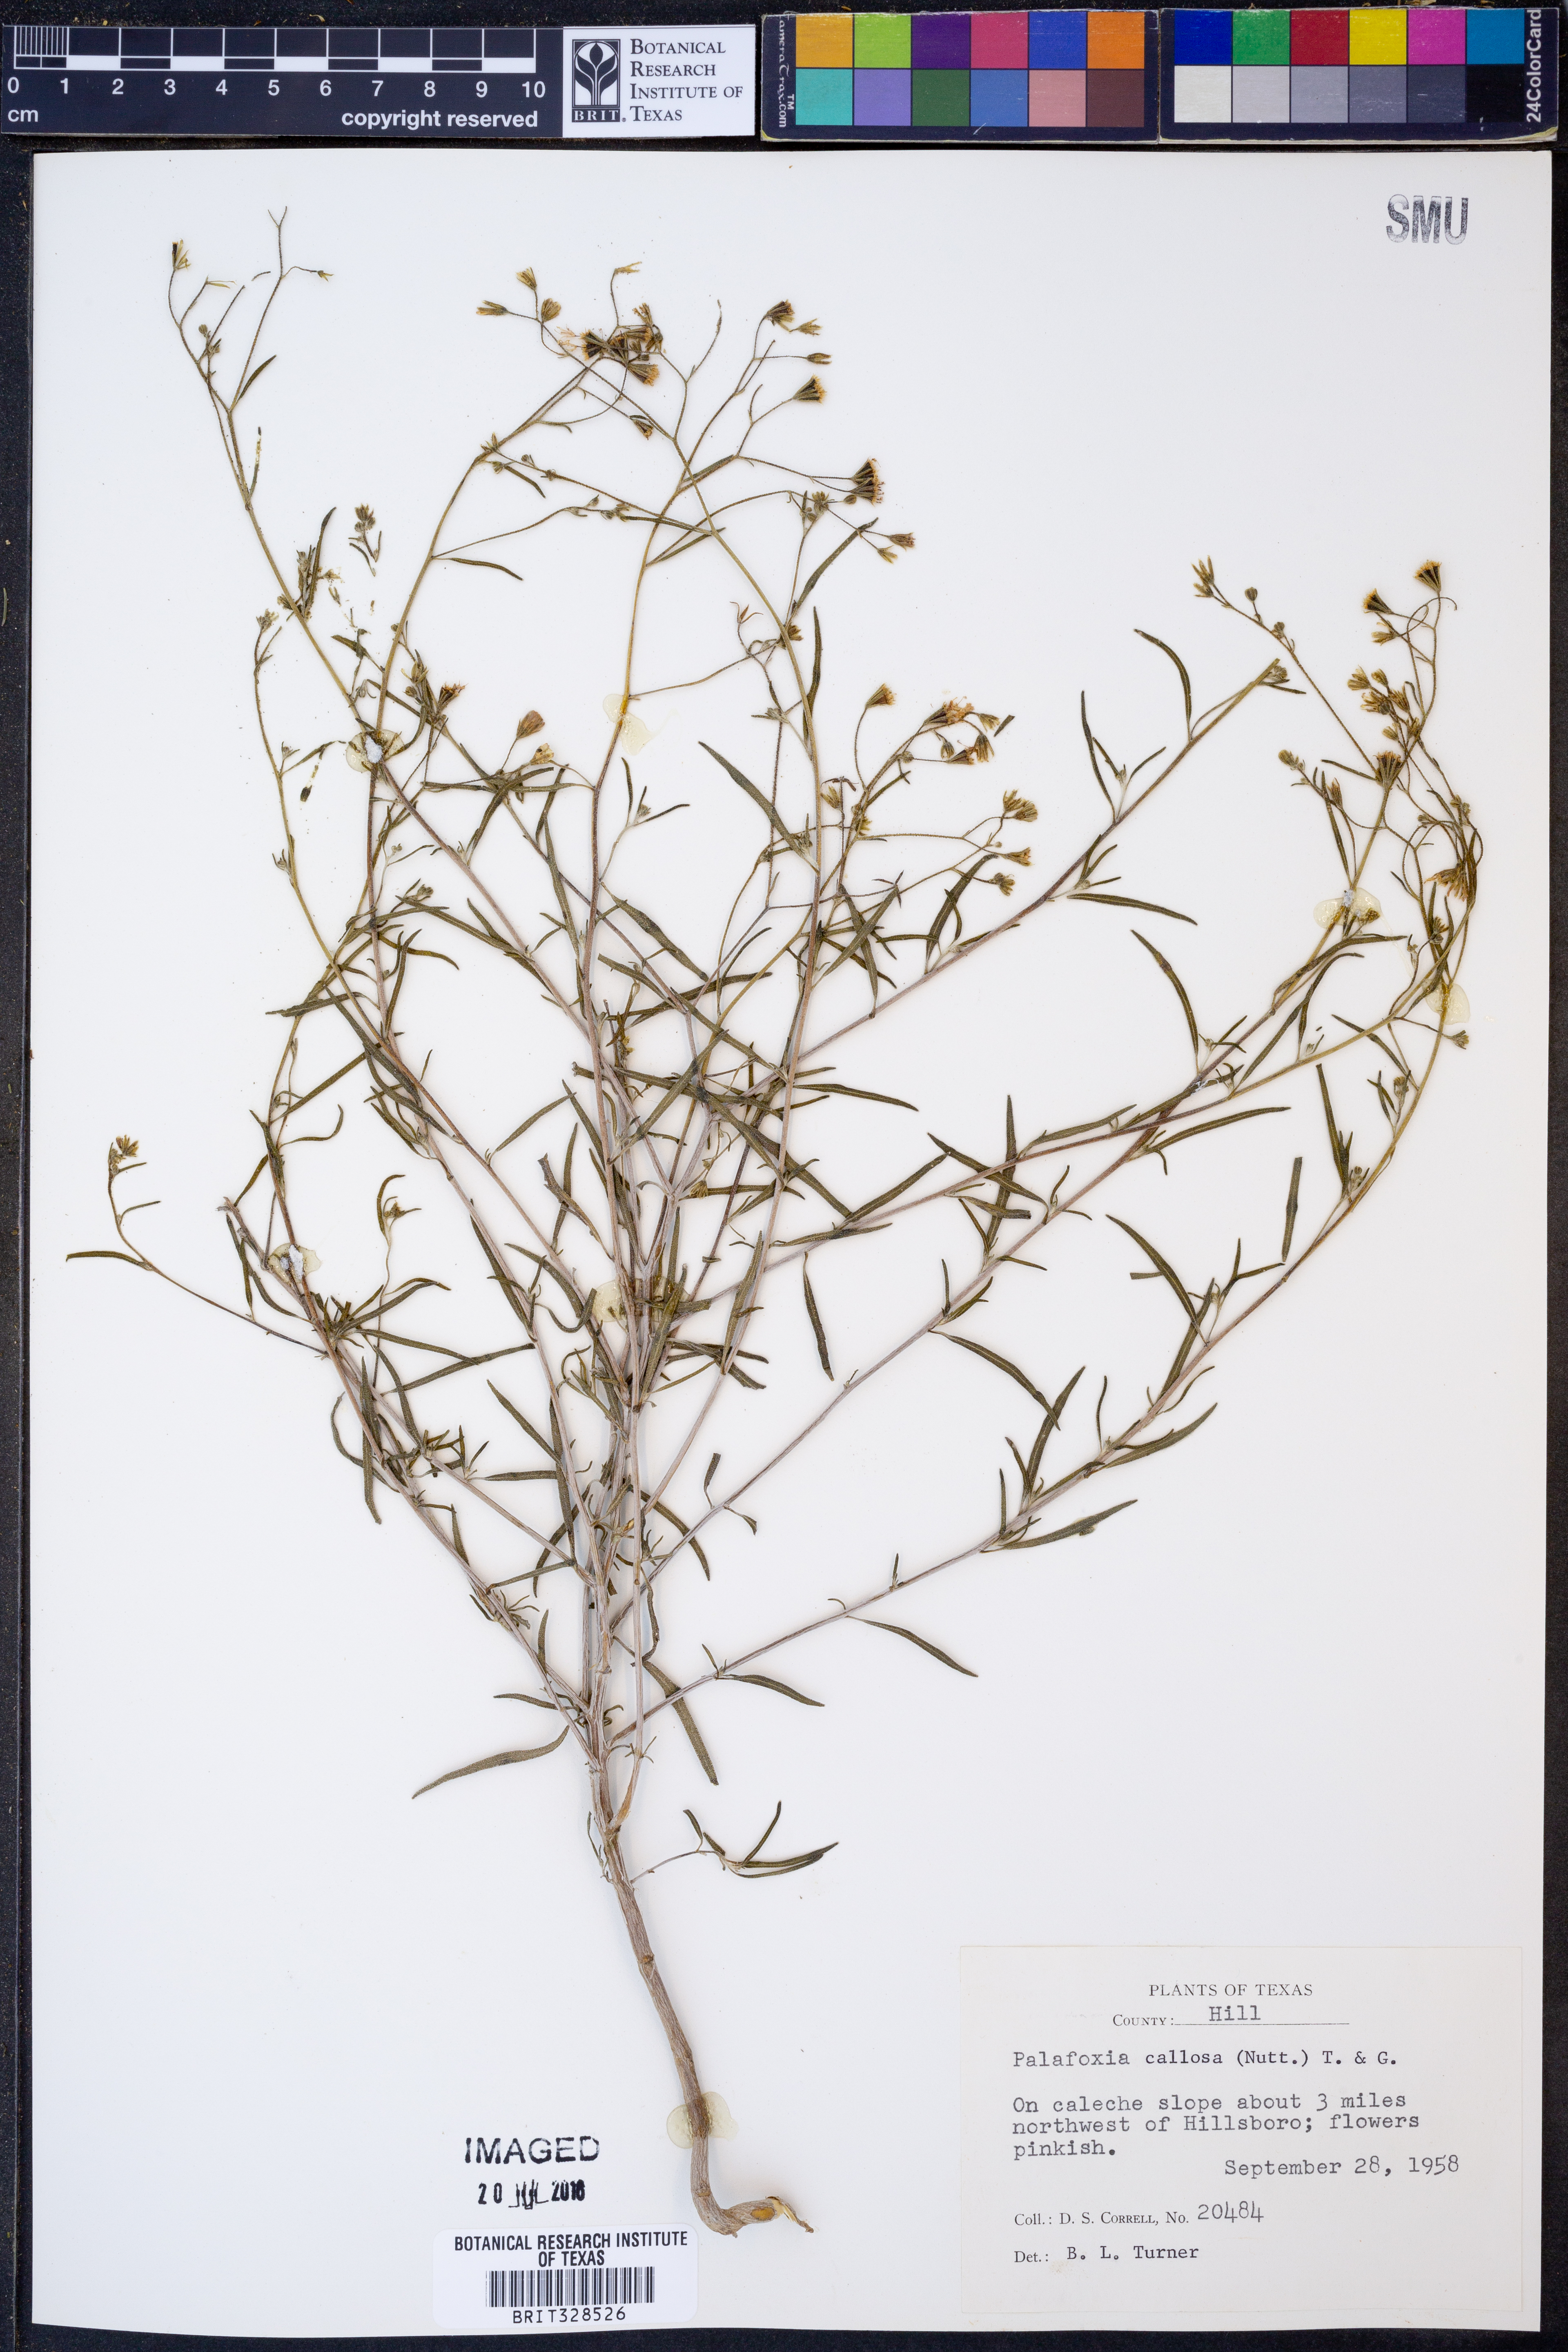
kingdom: Plantae
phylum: Tracheophyta
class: Magnoliopsida
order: Asterales
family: Asteraceae
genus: Palafoxia
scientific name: Palafoxia callosa
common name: Small palafox
